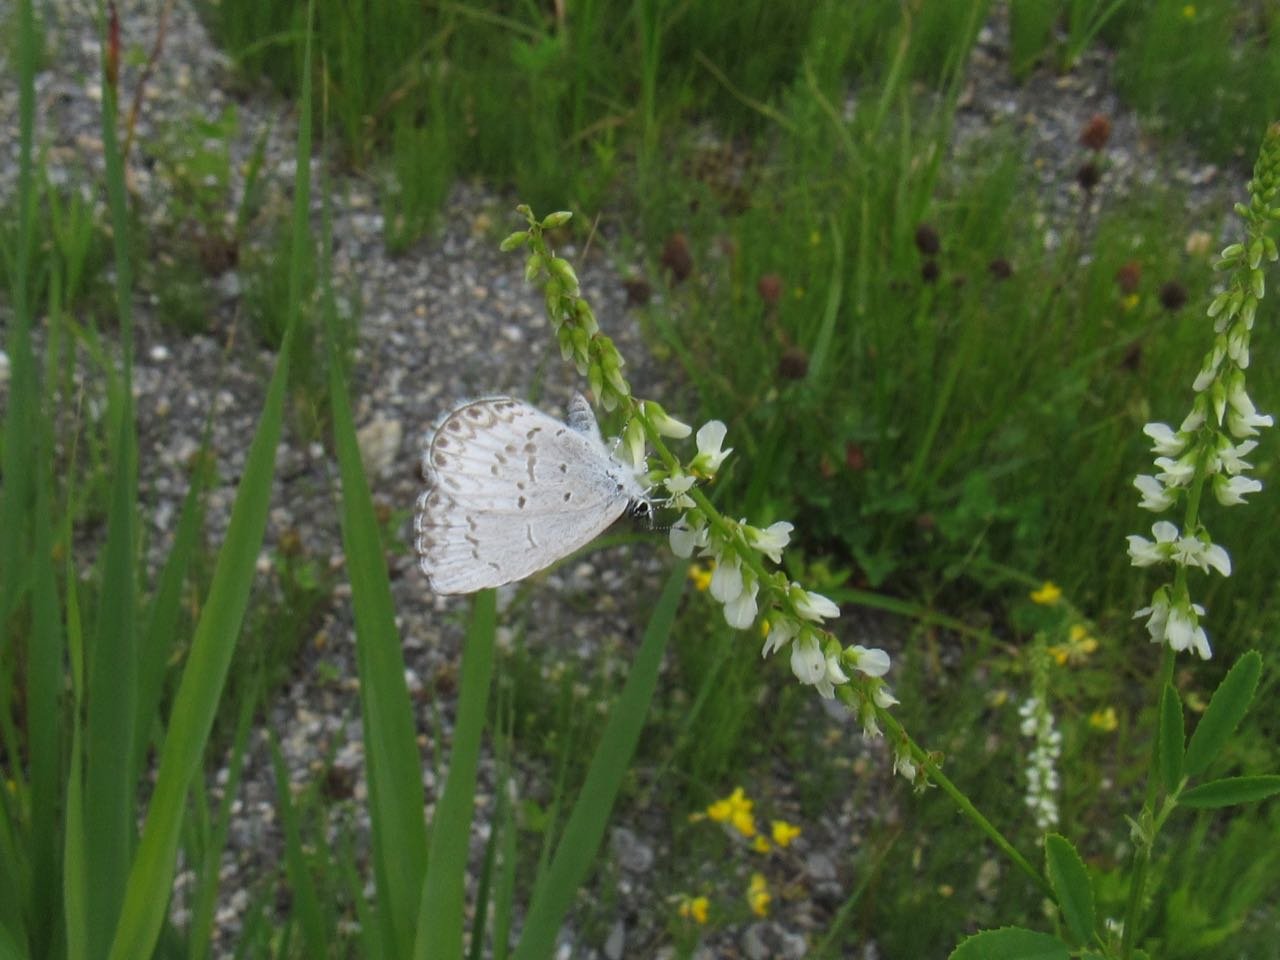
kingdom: Animalia
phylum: Arthropoda
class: Insecta
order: Lepidoptera
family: Lycaenidae
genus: Celastrina
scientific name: Celastrina
